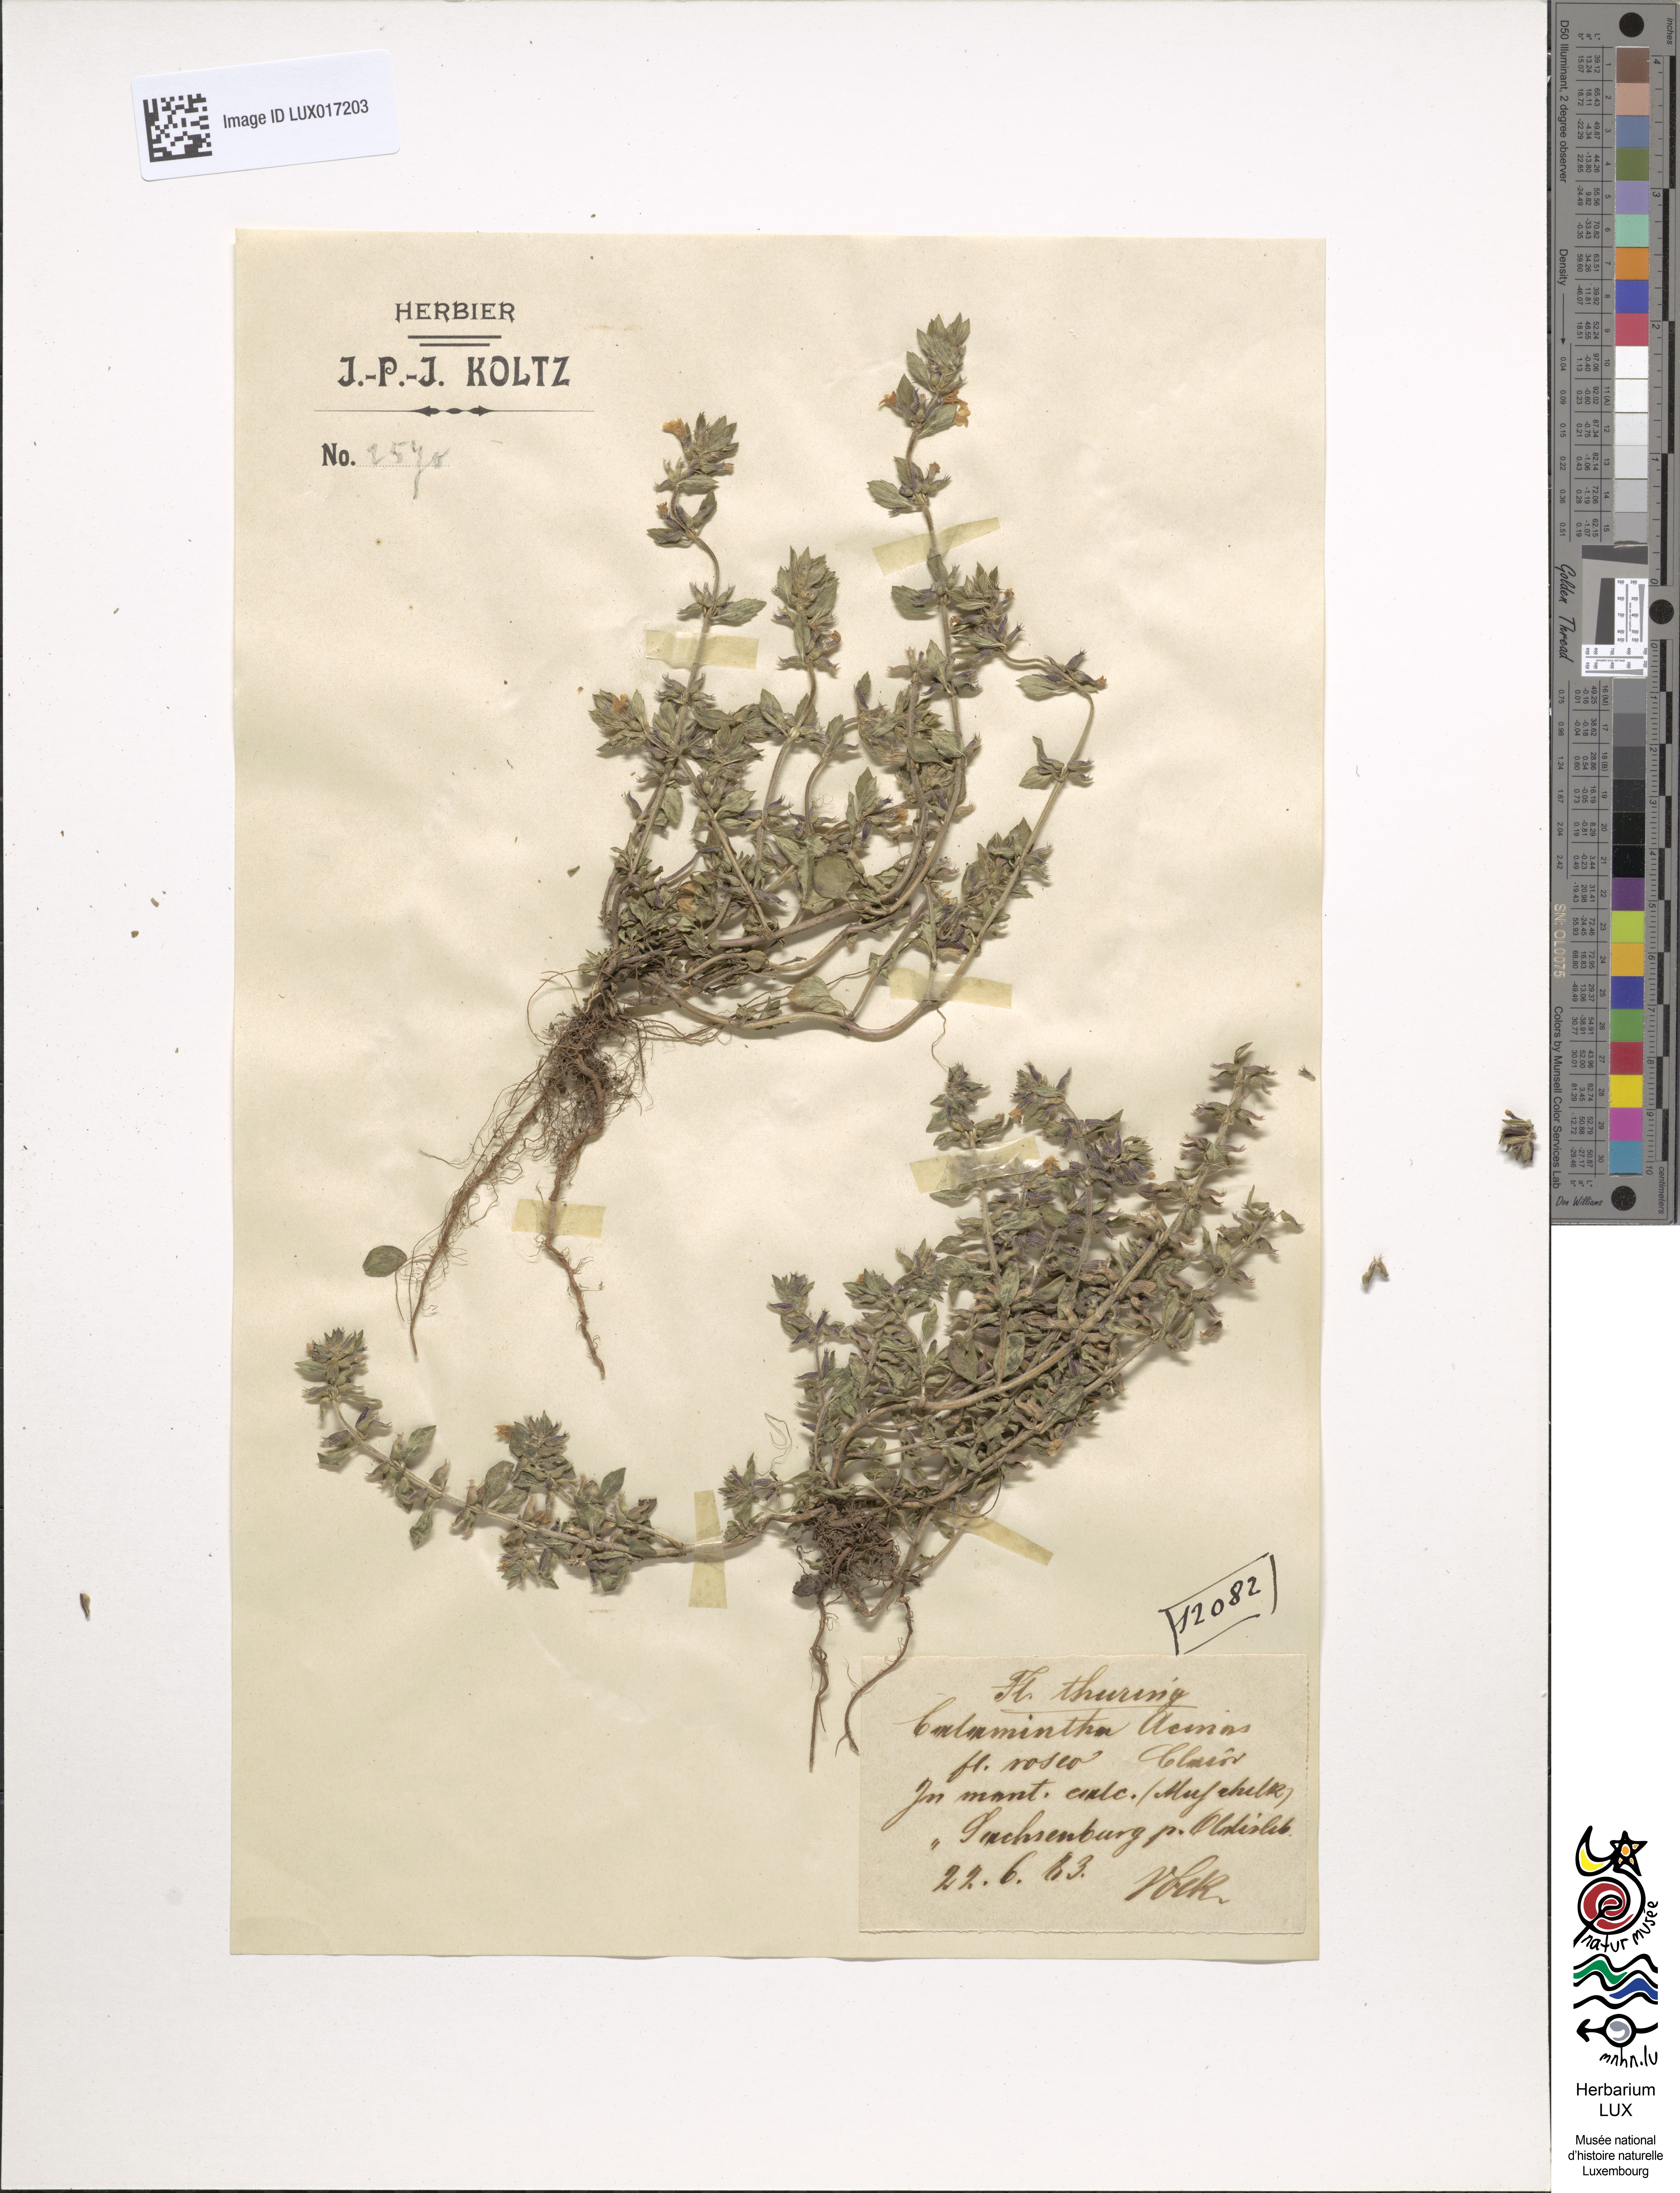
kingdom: Plantae
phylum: Tracheophyta
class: Magnoliopsida
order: Lamiales
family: Lamiaceae
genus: Clinopodium
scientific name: Clinopodium acinos
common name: Basil thyme
